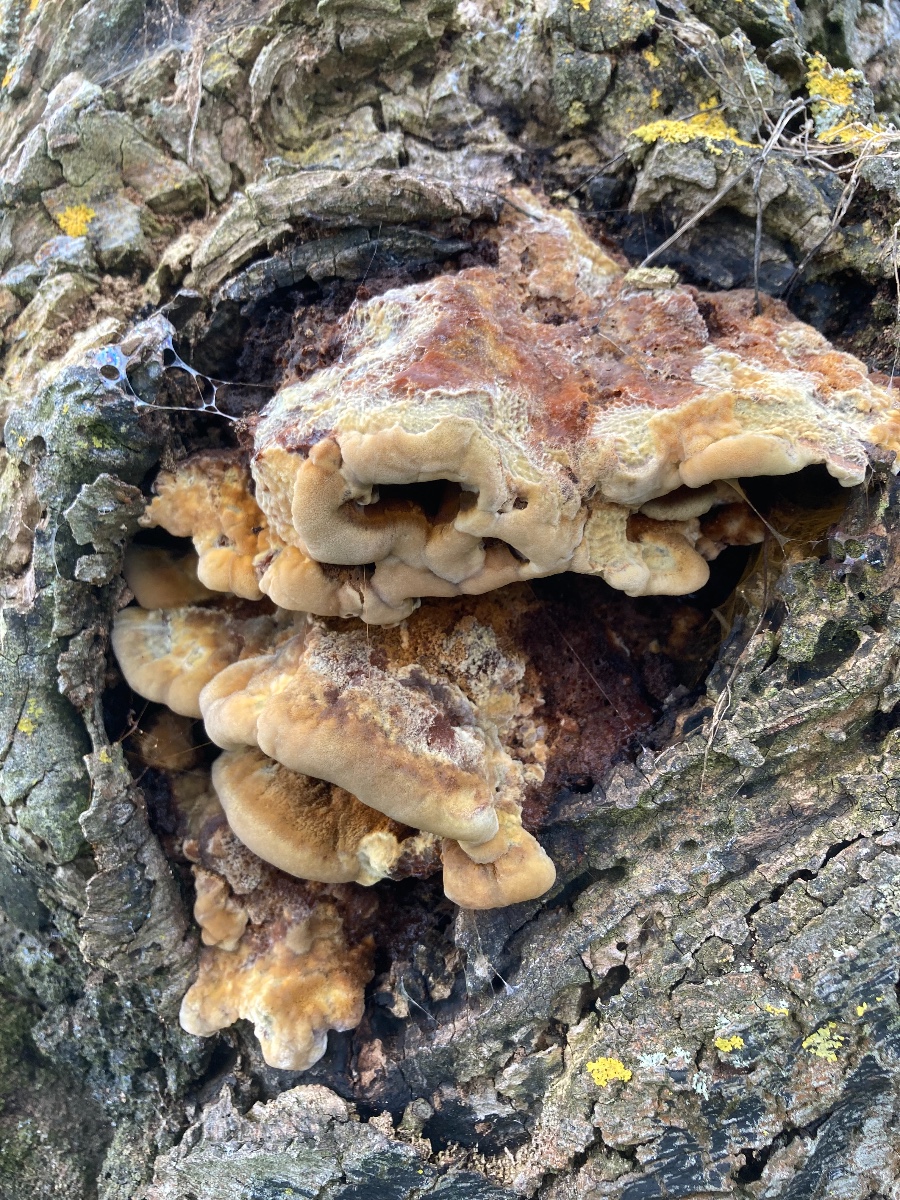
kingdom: Fungi
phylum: Basidiomycota
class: Agaricomycetes
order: Hymenochaetales
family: Hymenochaetaceae
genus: Inonotus
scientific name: Inonotus cuticularis
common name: kroghåret spejlporesvamp
